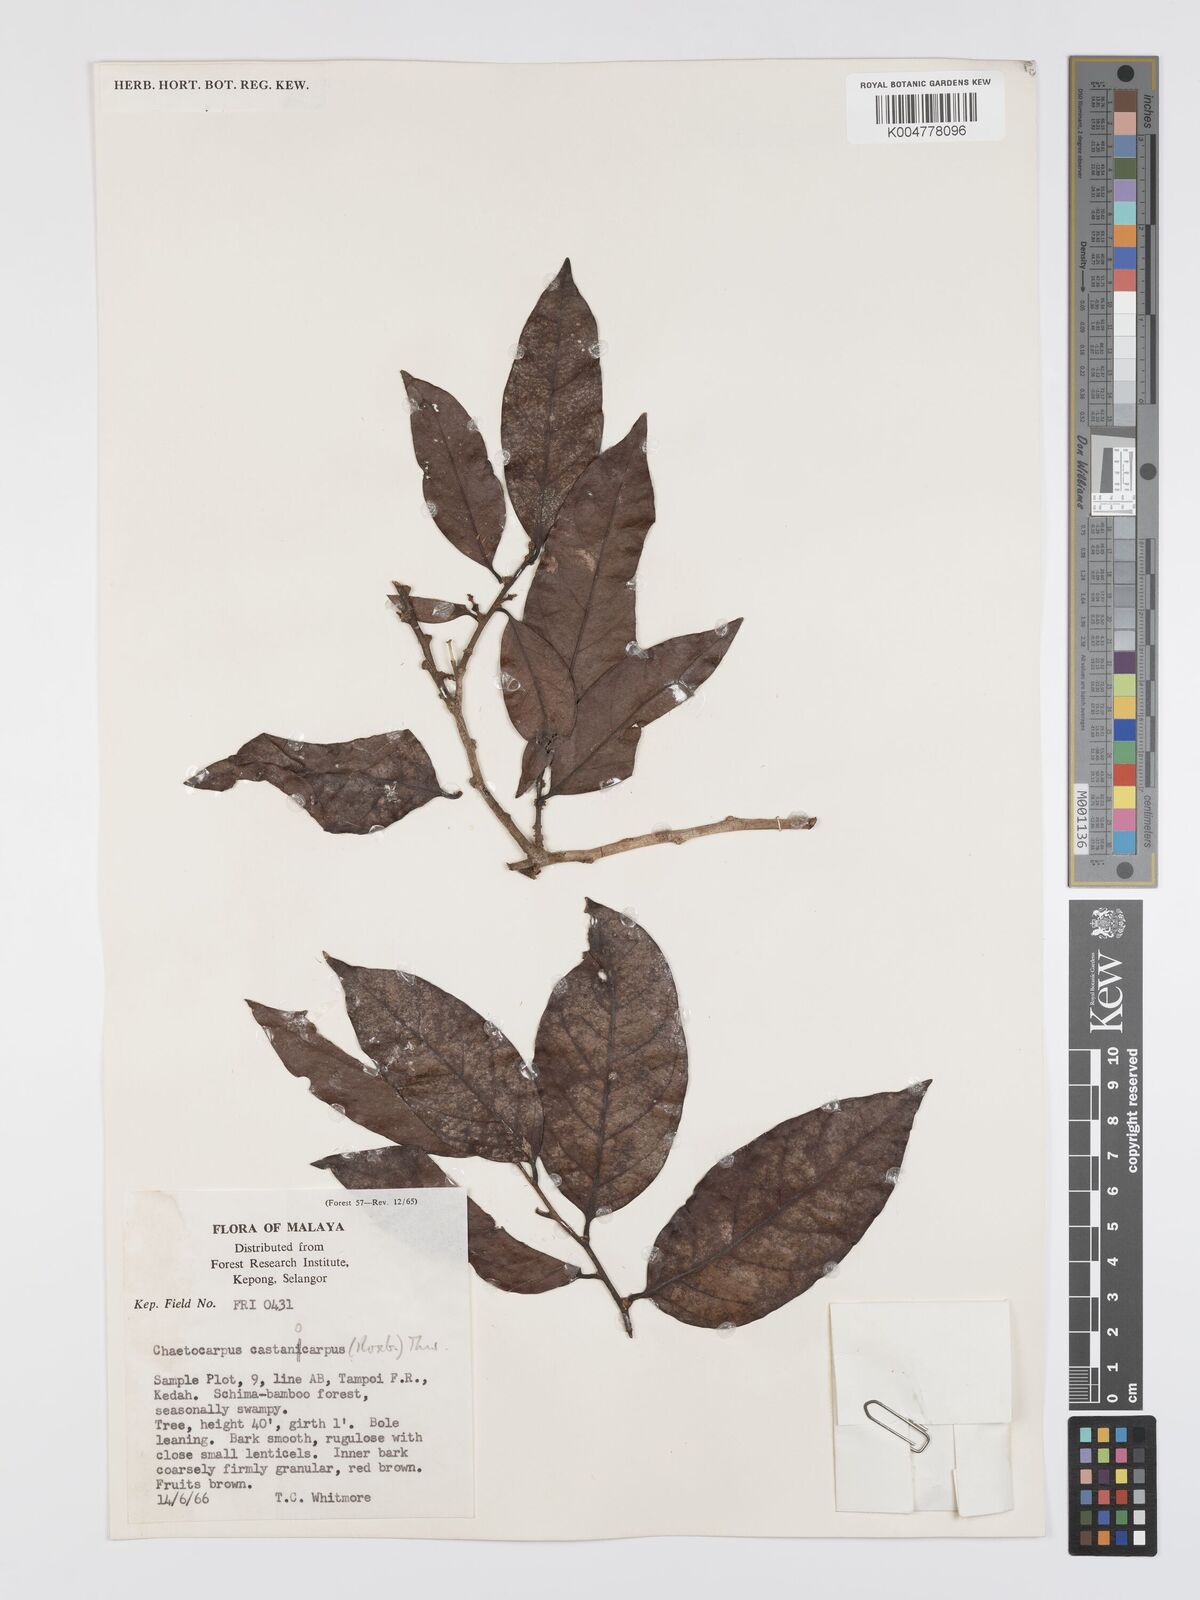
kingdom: Plantae
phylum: Tracheophyta
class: Magnoliopsida
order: Malpighiales
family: Peraceae
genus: Chaetocarpus
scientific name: Chaetocarpus castanocarpus
